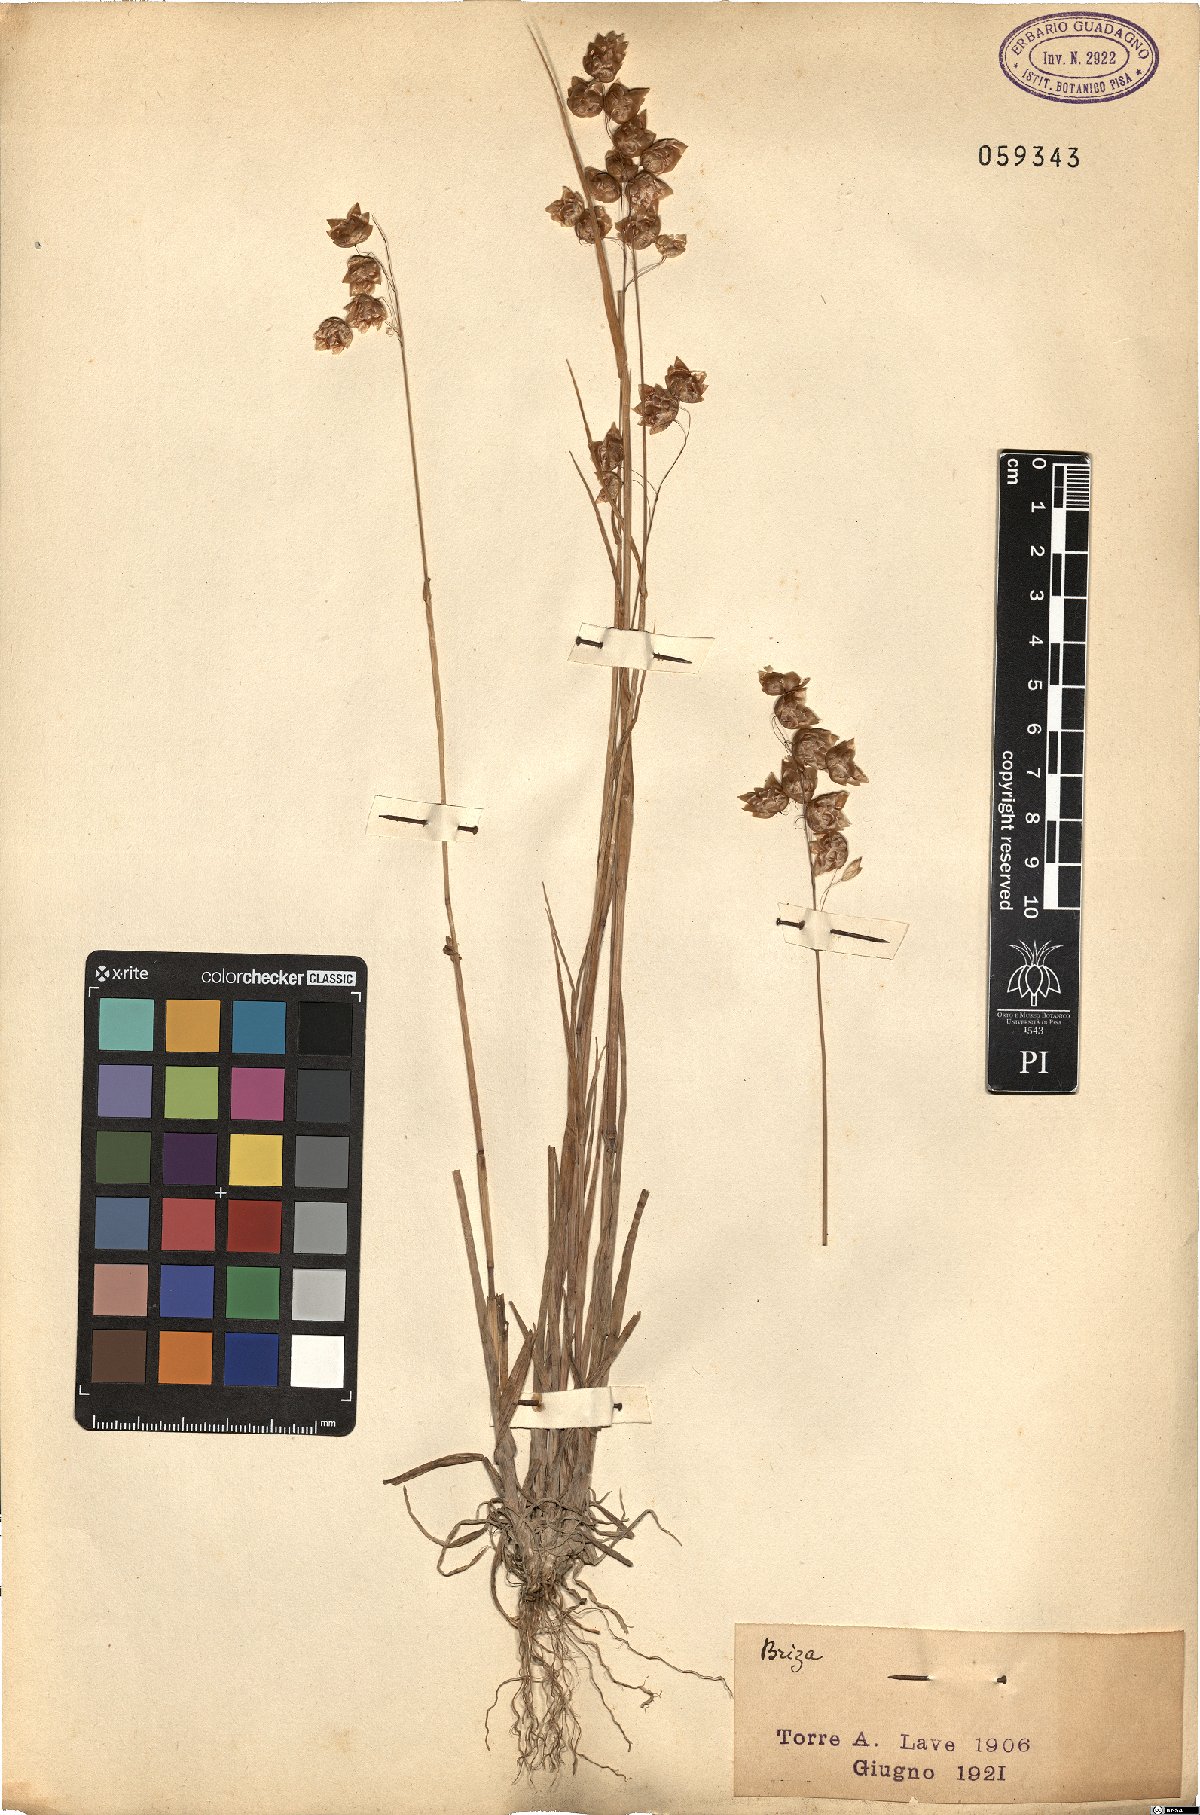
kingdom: Plantae
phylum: Tracheophyta
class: Liliopsida
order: Poales
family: Poaceae
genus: Briza
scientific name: Briza
